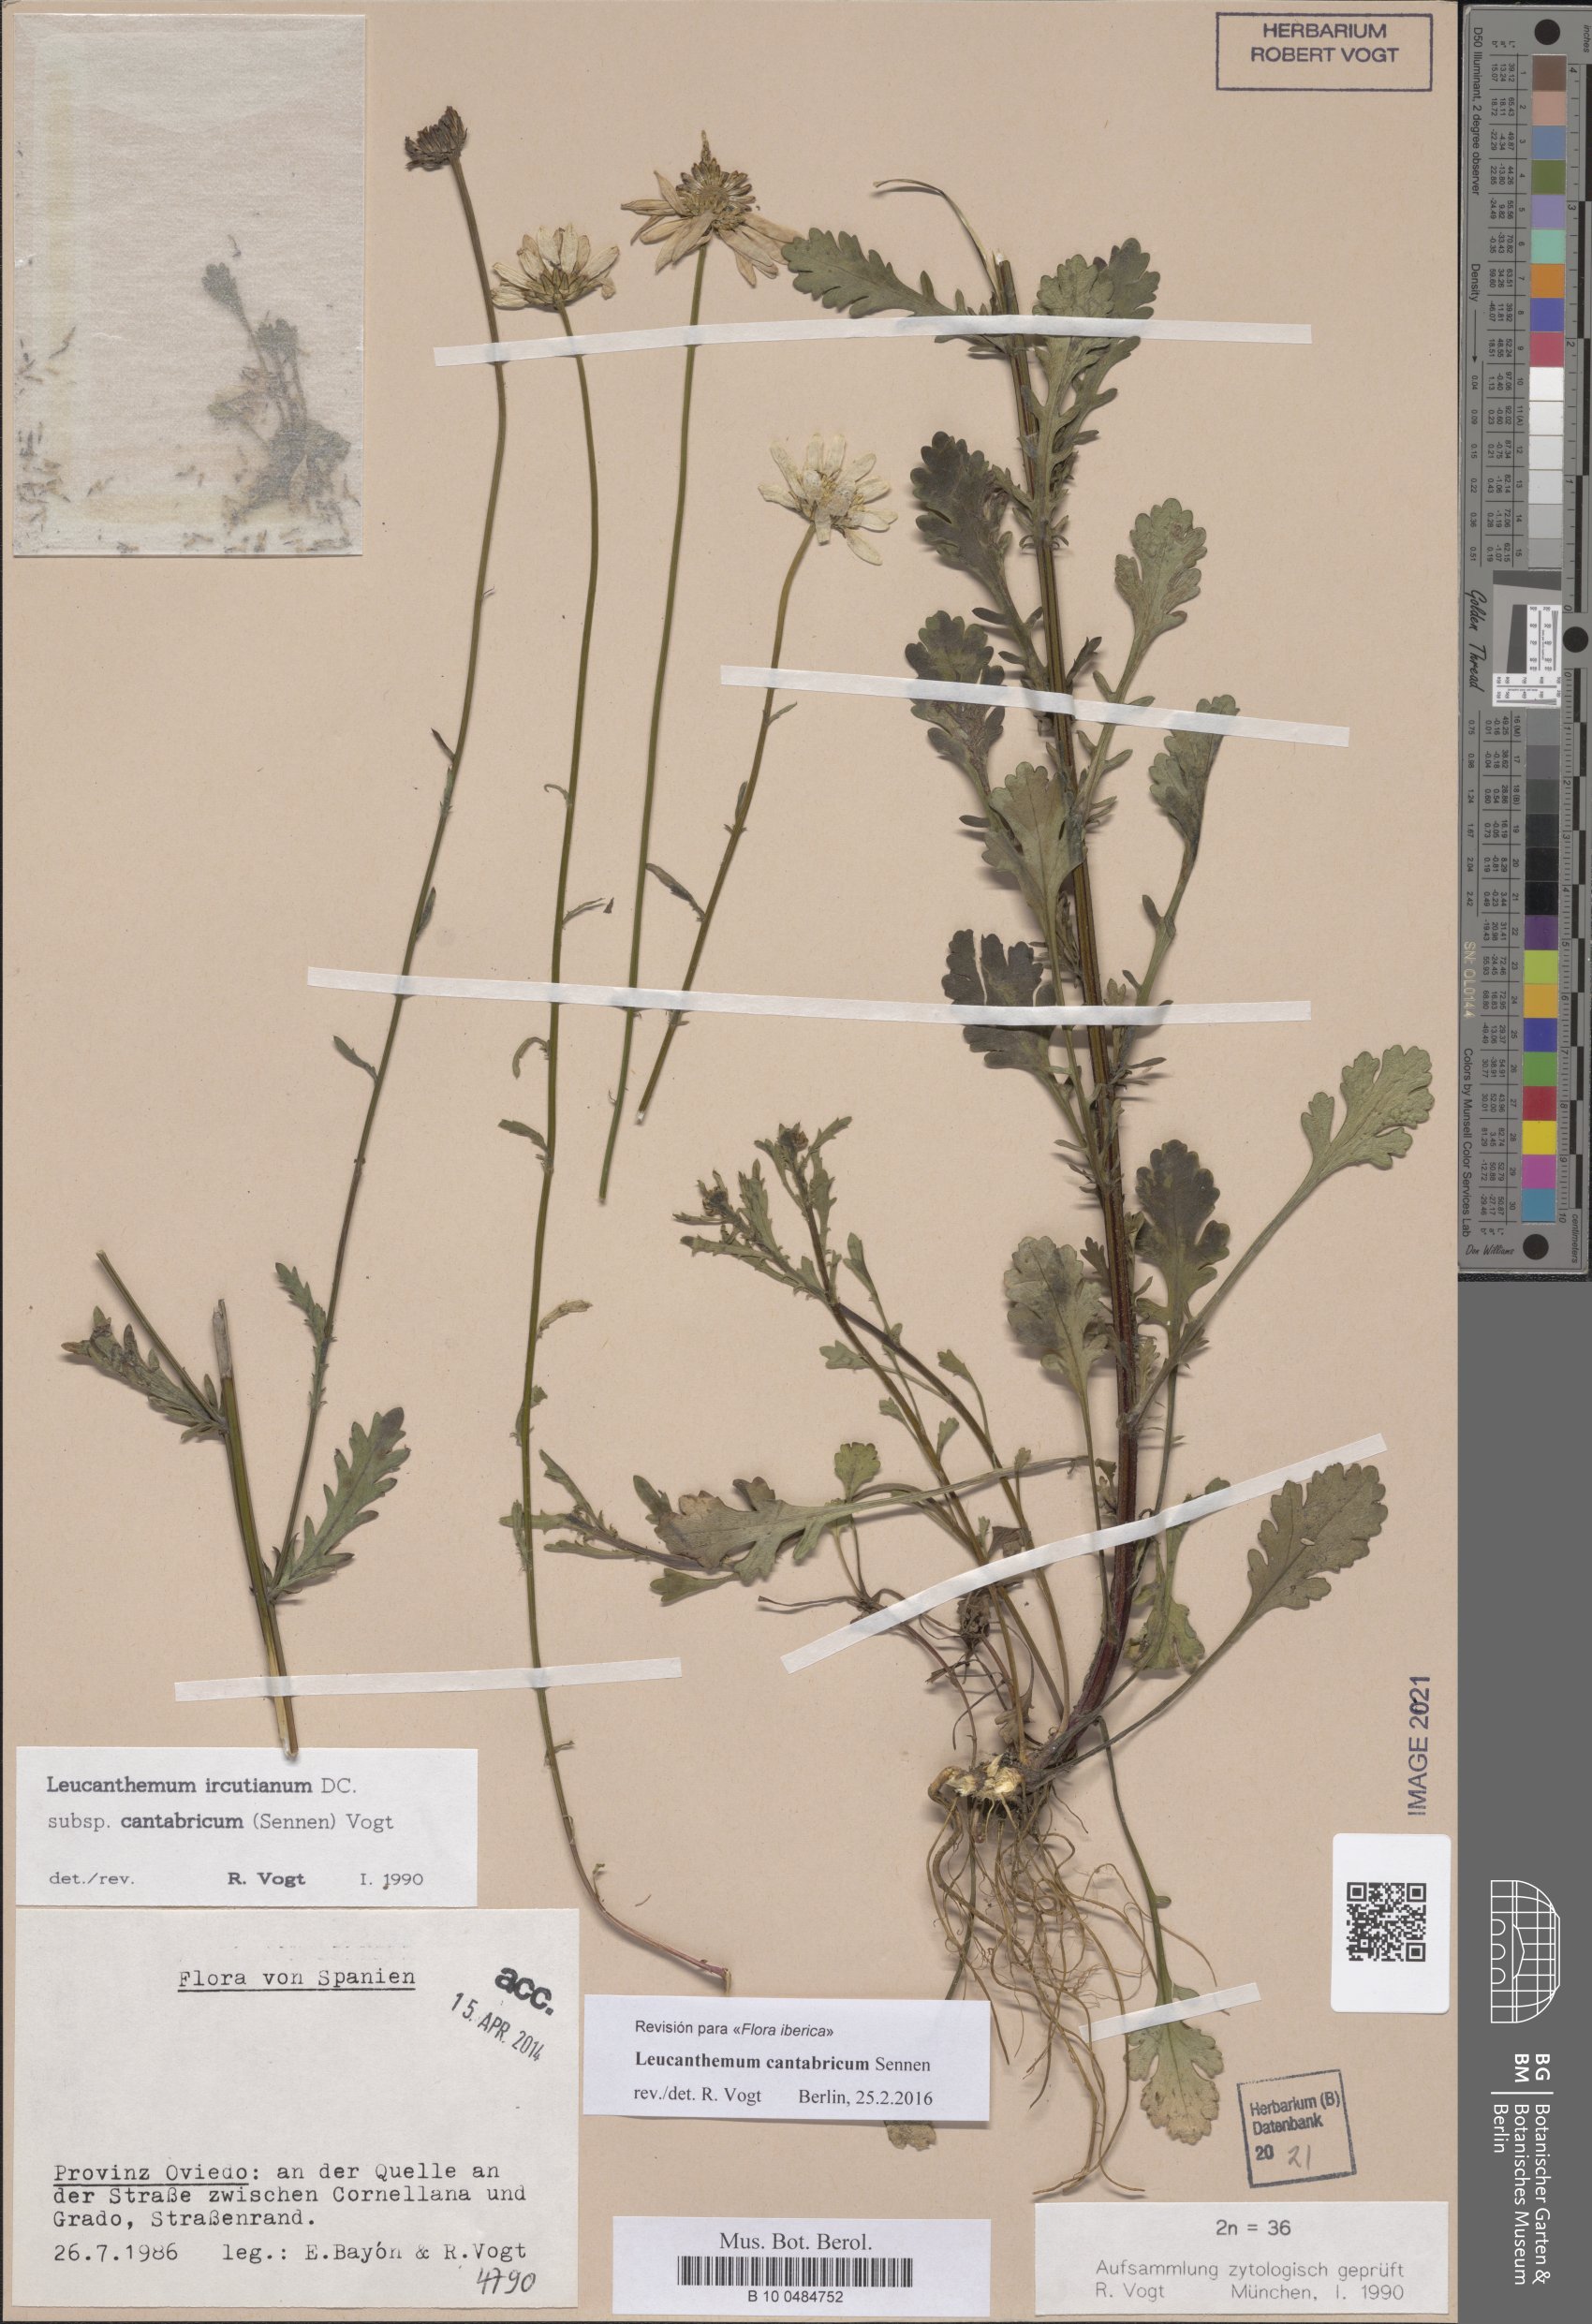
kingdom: Plantae
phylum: Tracheophyta
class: Magnoliopsida
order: Asterales
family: Asteraceae
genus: Leucanthemum
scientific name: Leucanthemum cantabricum
